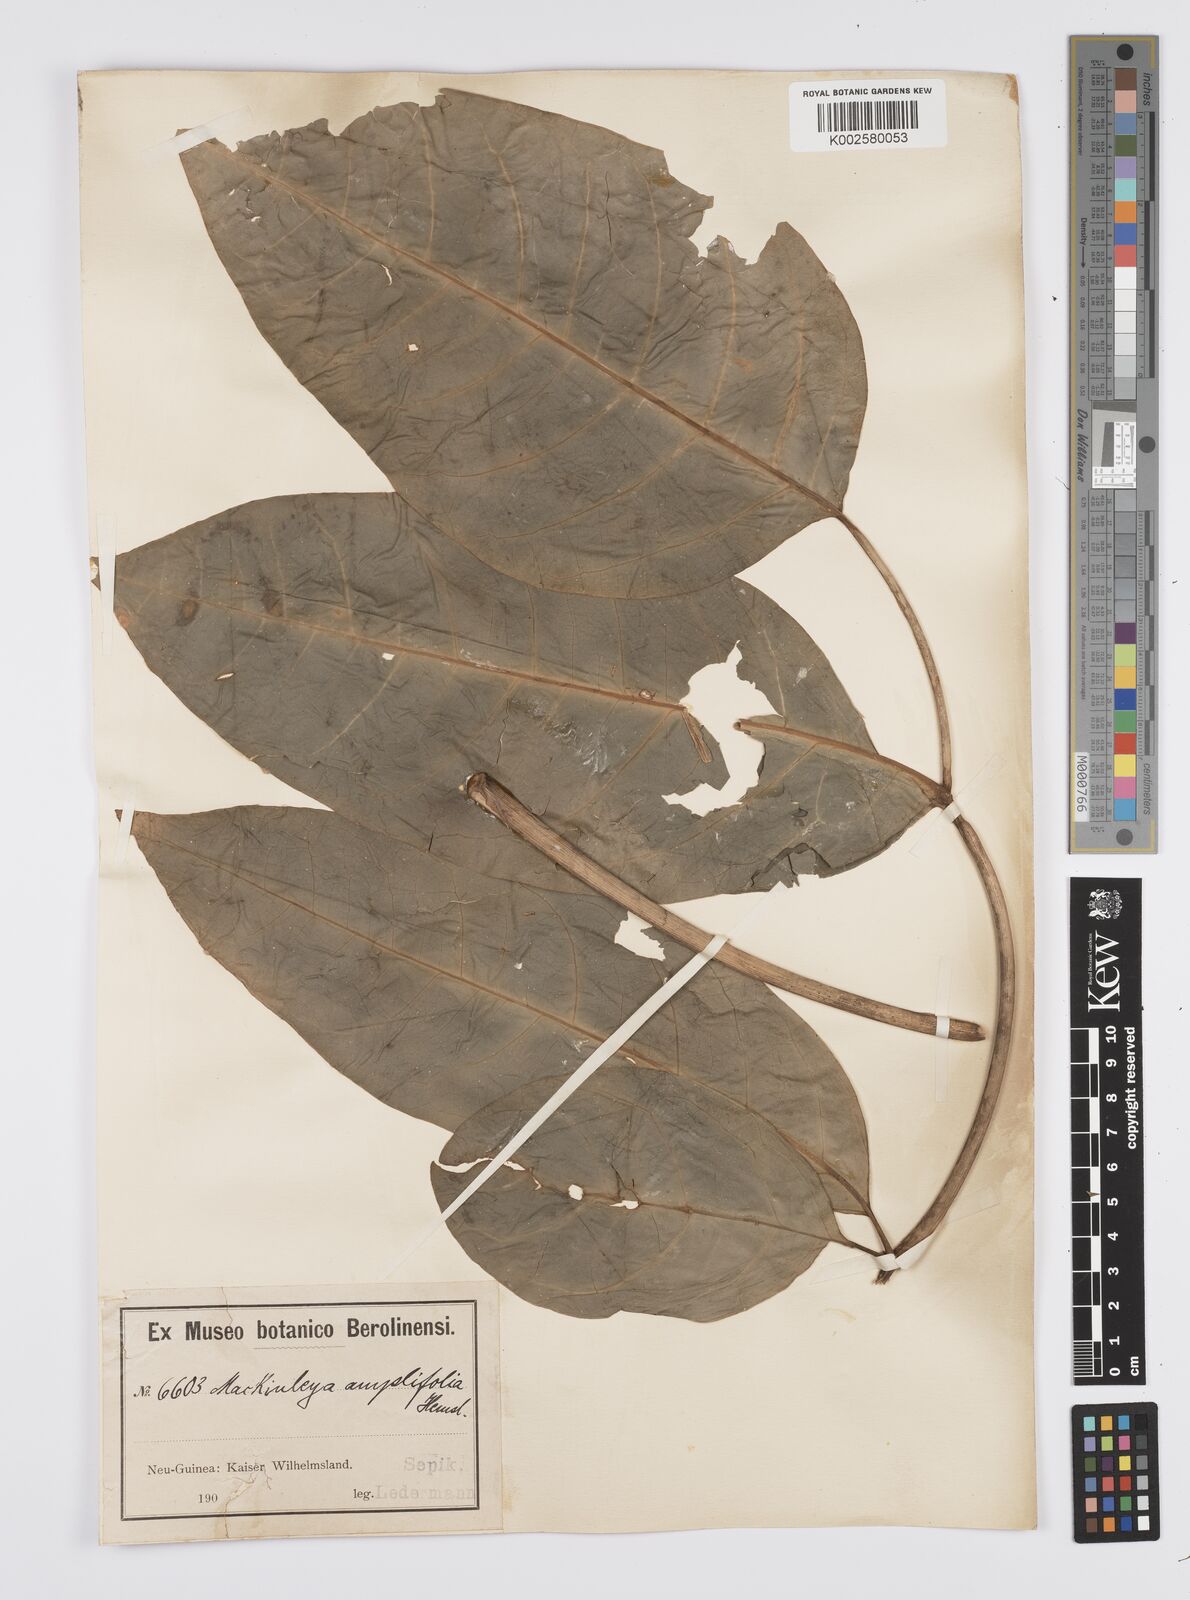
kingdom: Plantae
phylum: Tracheophyta
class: Magnoliopsida
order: Apiales
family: Apiaceae
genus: Mackinlaya
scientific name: Mackinlaya celebica
